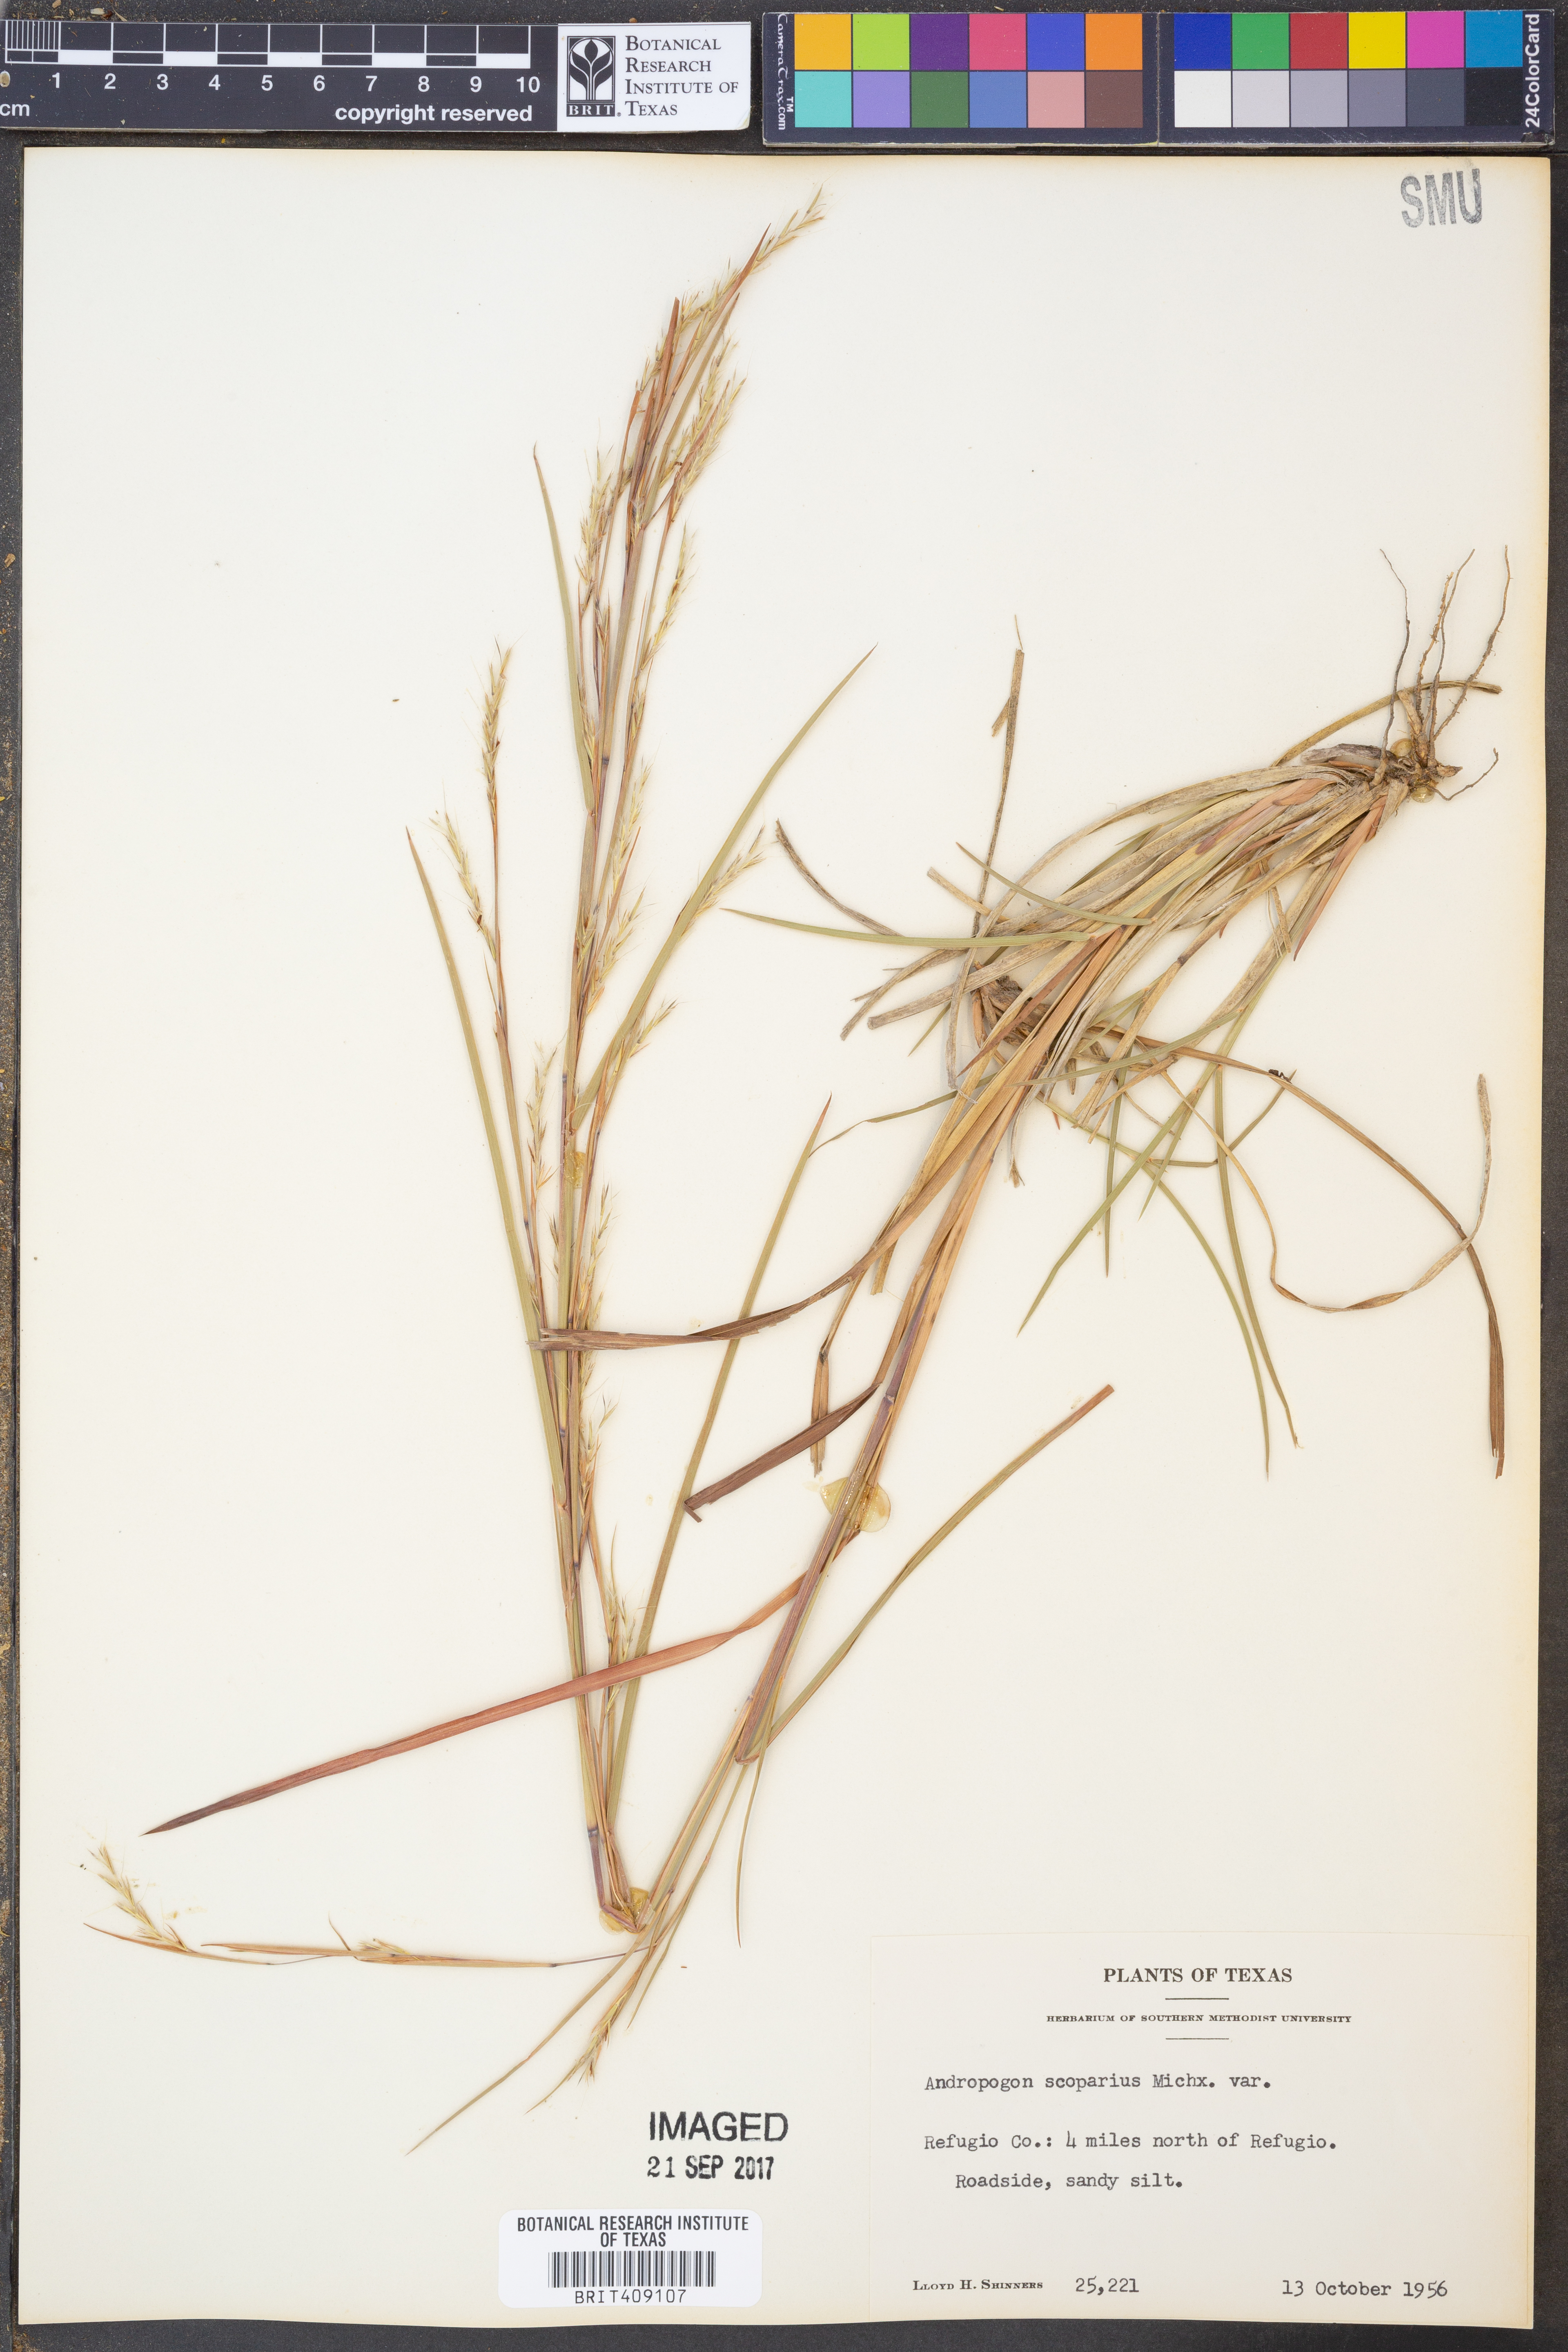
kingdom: Plantae
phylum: Tracheophyta
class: Liliopsida
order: Poales
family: Poaceae
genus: Schizachyrium
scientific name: Schizachyrium scoparium
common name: Little bluestem
